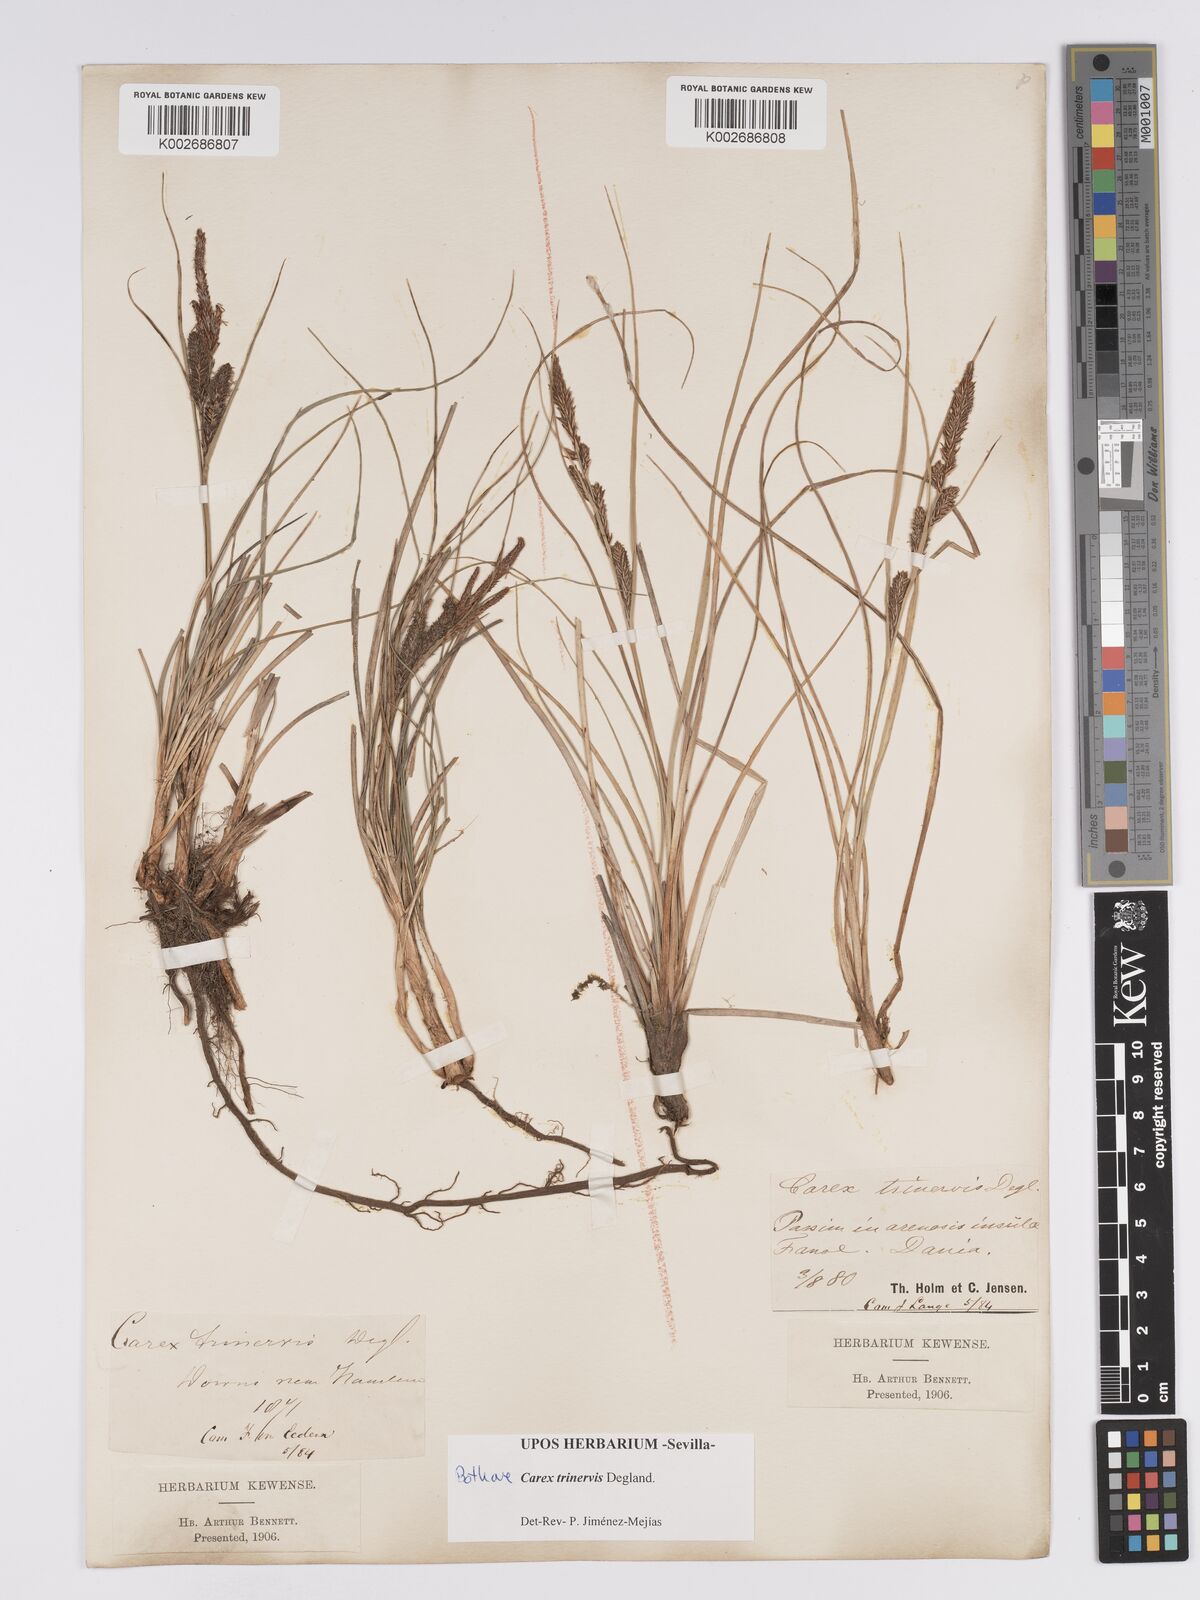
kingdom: Plantae
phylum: Tracheophyta
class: Liliopsida
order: Poales
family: Cyperaceae
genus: Carex
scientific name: Carex trinervis
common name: Three-nerved sedge
